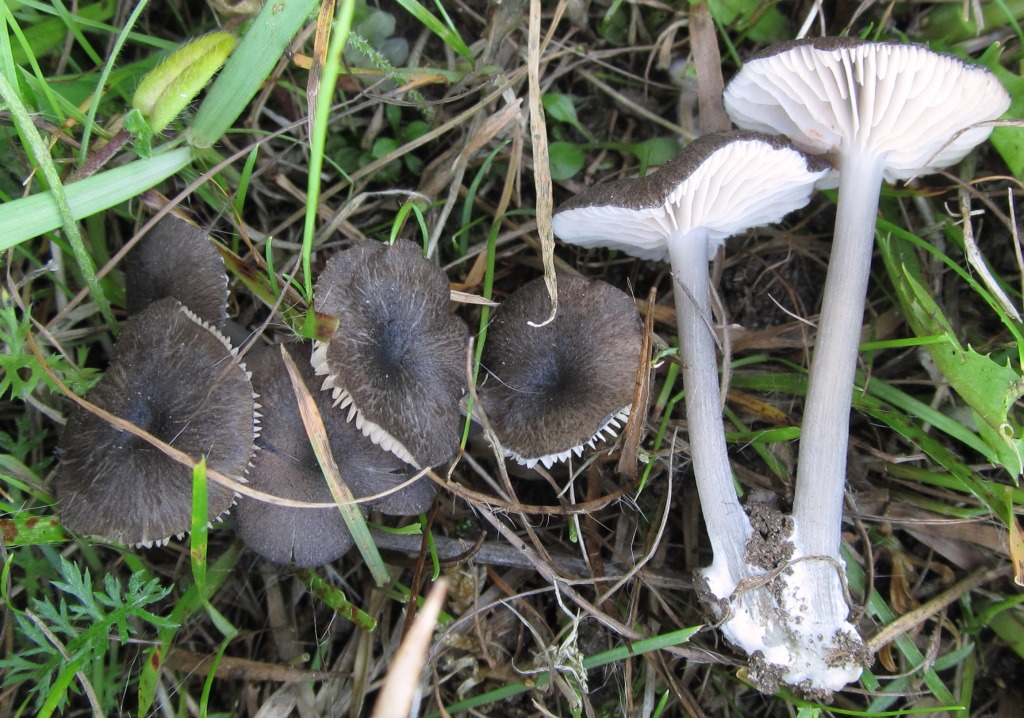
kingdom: Fungi
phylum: Basidiomycota
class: Agaricomycetes
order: Agaricales
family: Entolomataceae
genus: Entoloma
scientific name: Entoloma porphyrogriseum
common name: porfyrgrå rødblad
